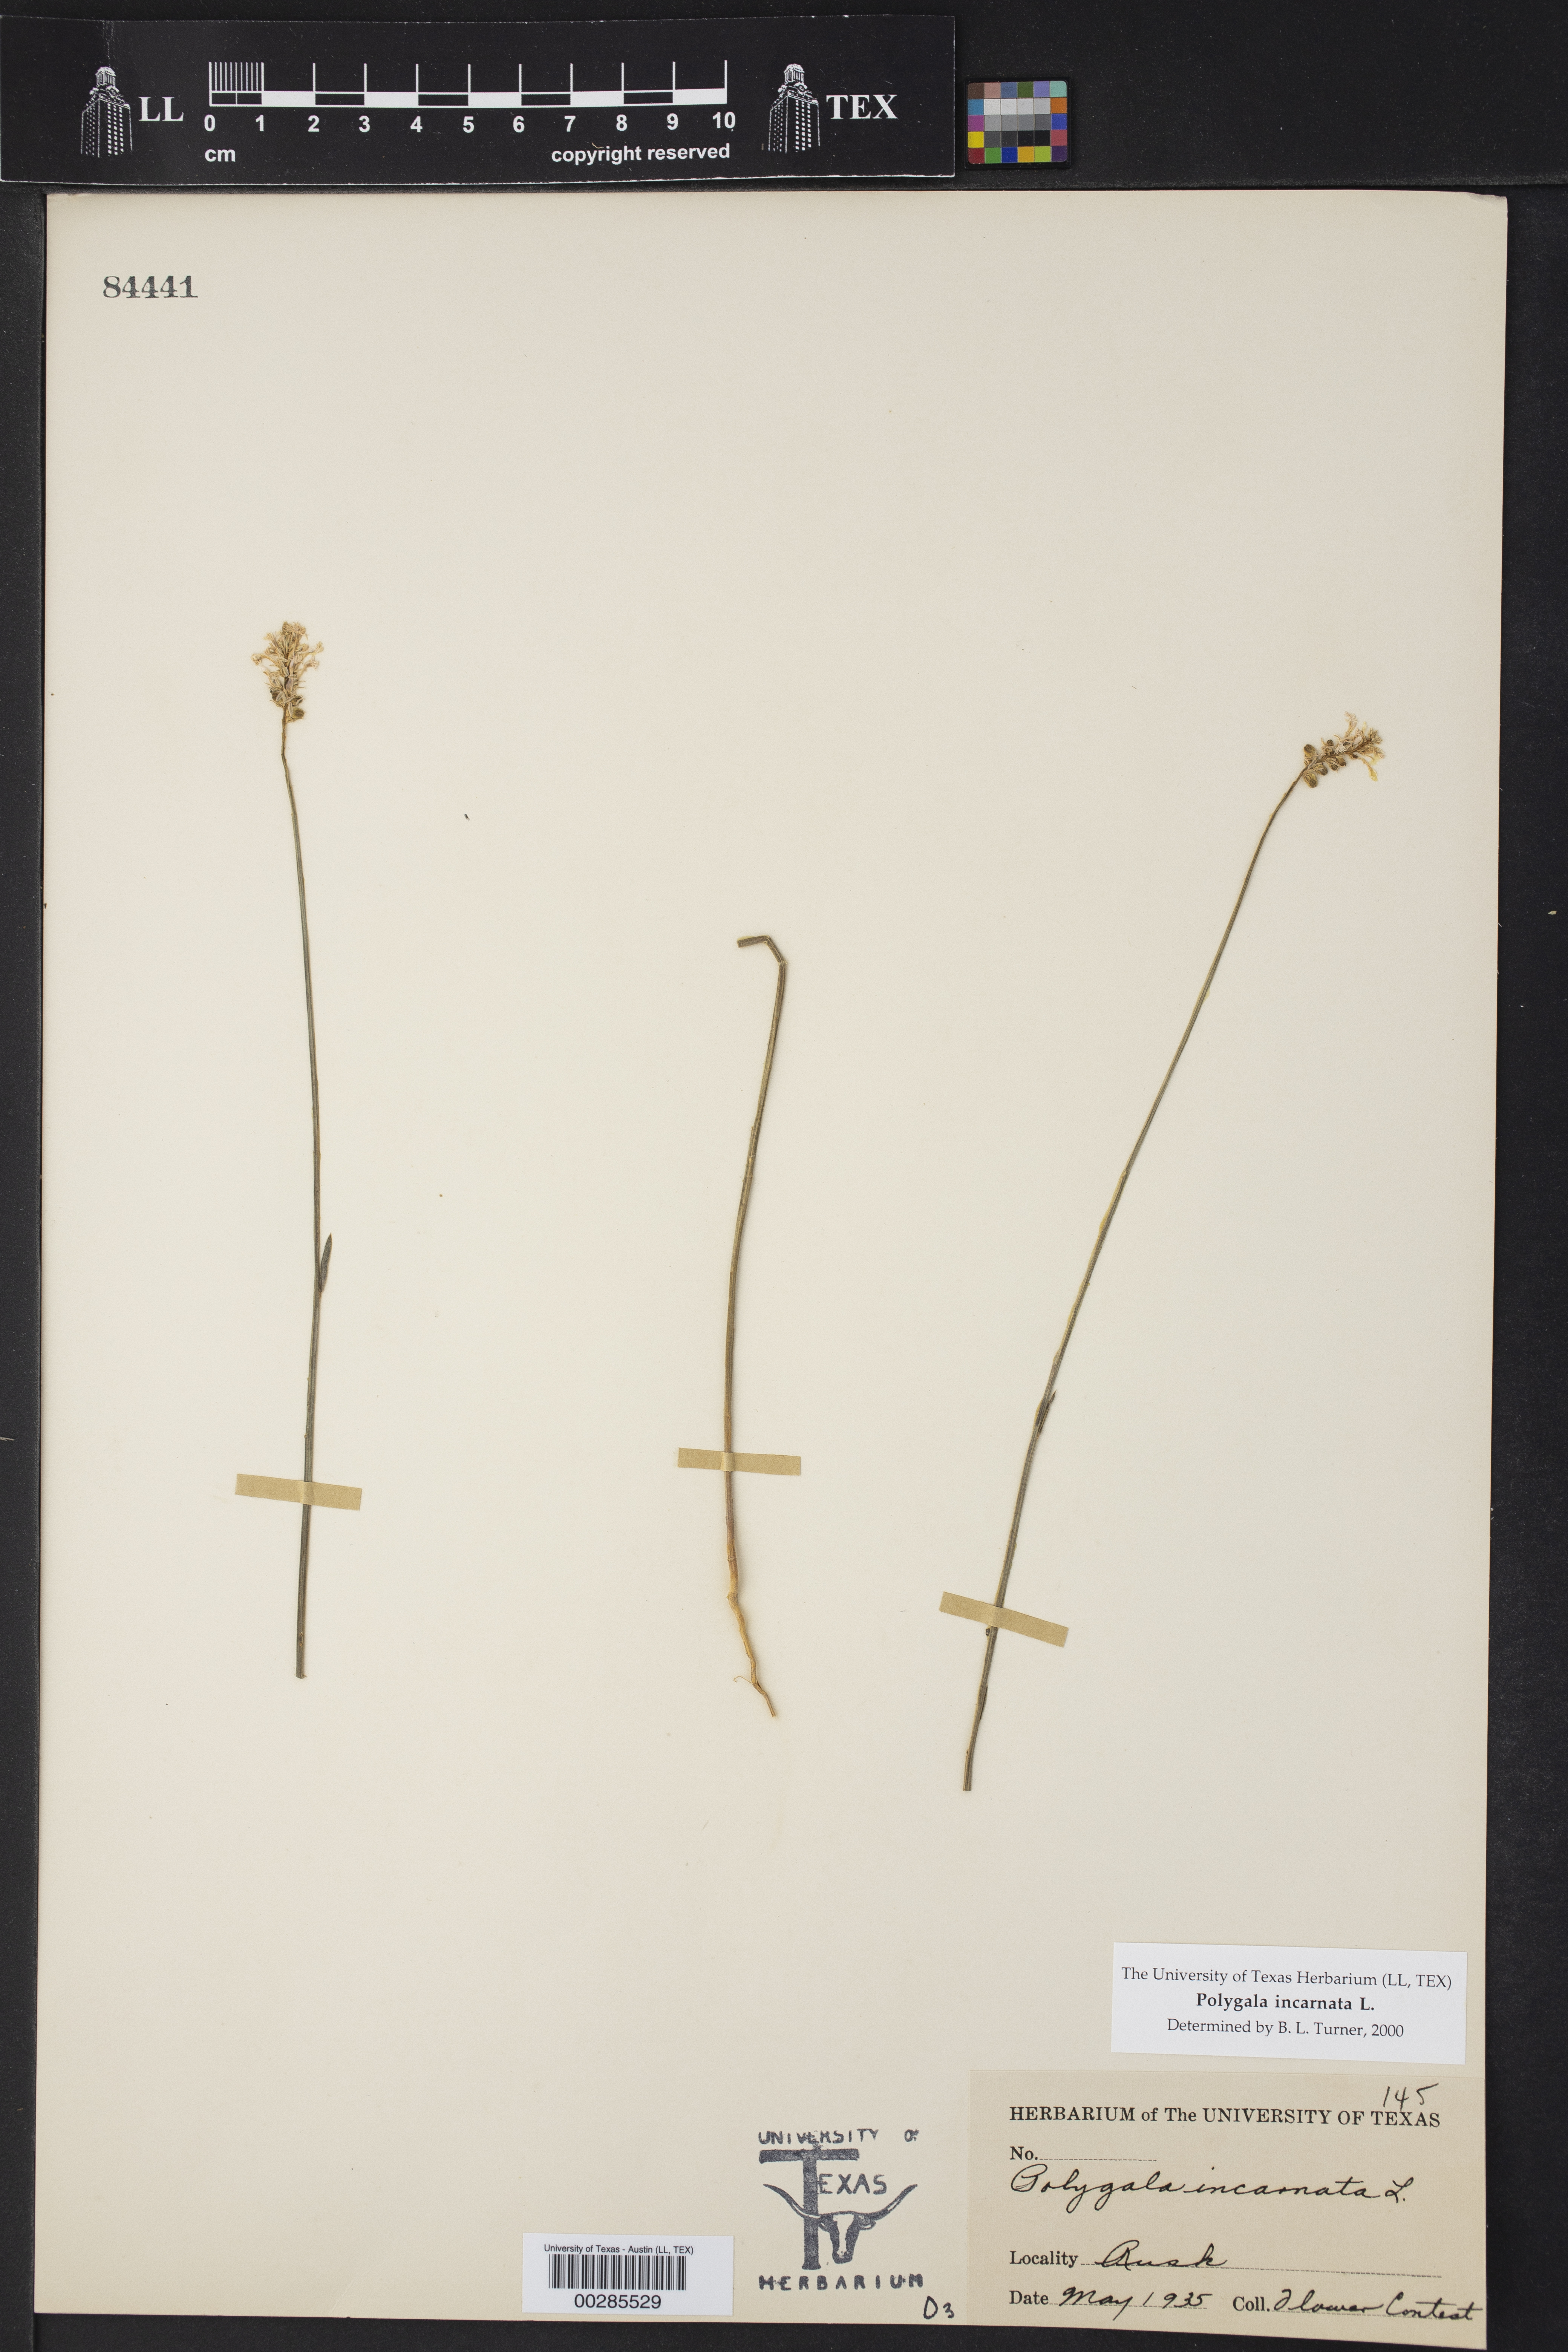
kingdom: Plantae
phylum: Tracheophyta
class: Magnoliopsida
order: Fabales
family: Polygalaceae
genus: Polygala
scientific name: Polygala incarnata
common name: Pink milkwort
